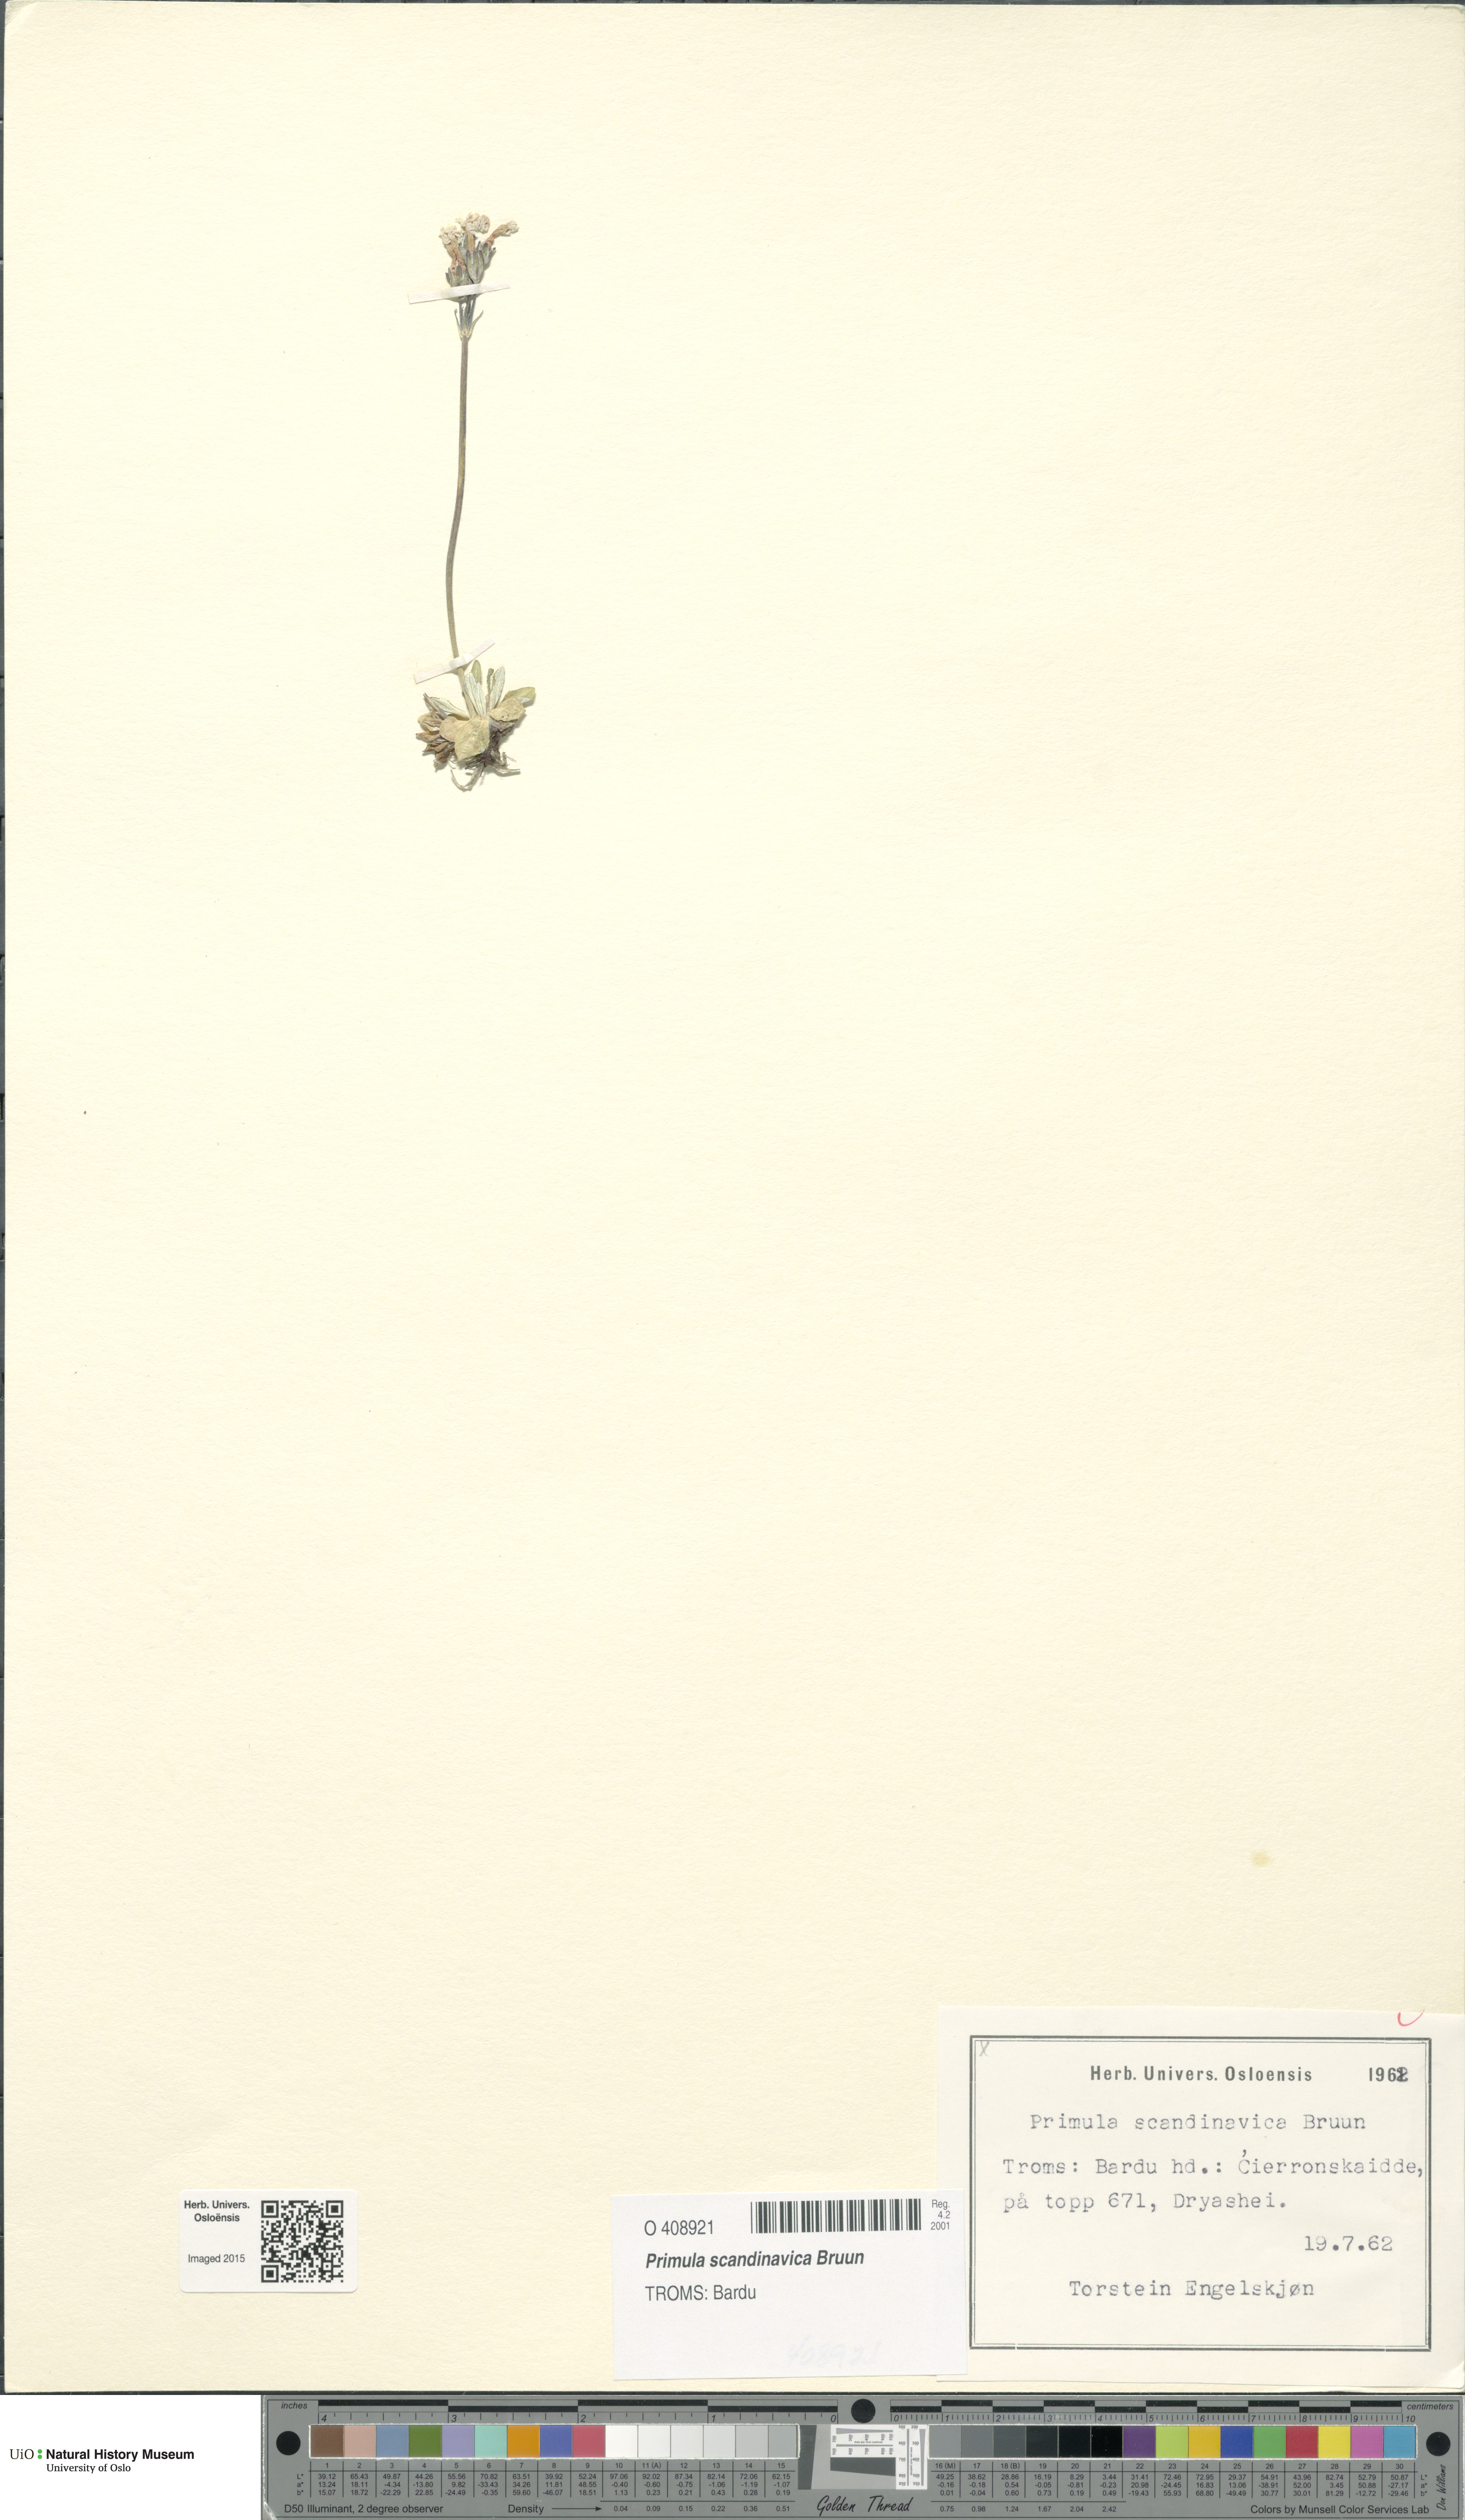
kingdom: Plantae
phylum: Tracheophyta
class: Magnoliopsida
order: Ericales
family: Primulaceae
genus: Primula
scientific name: Primula scandinavica
